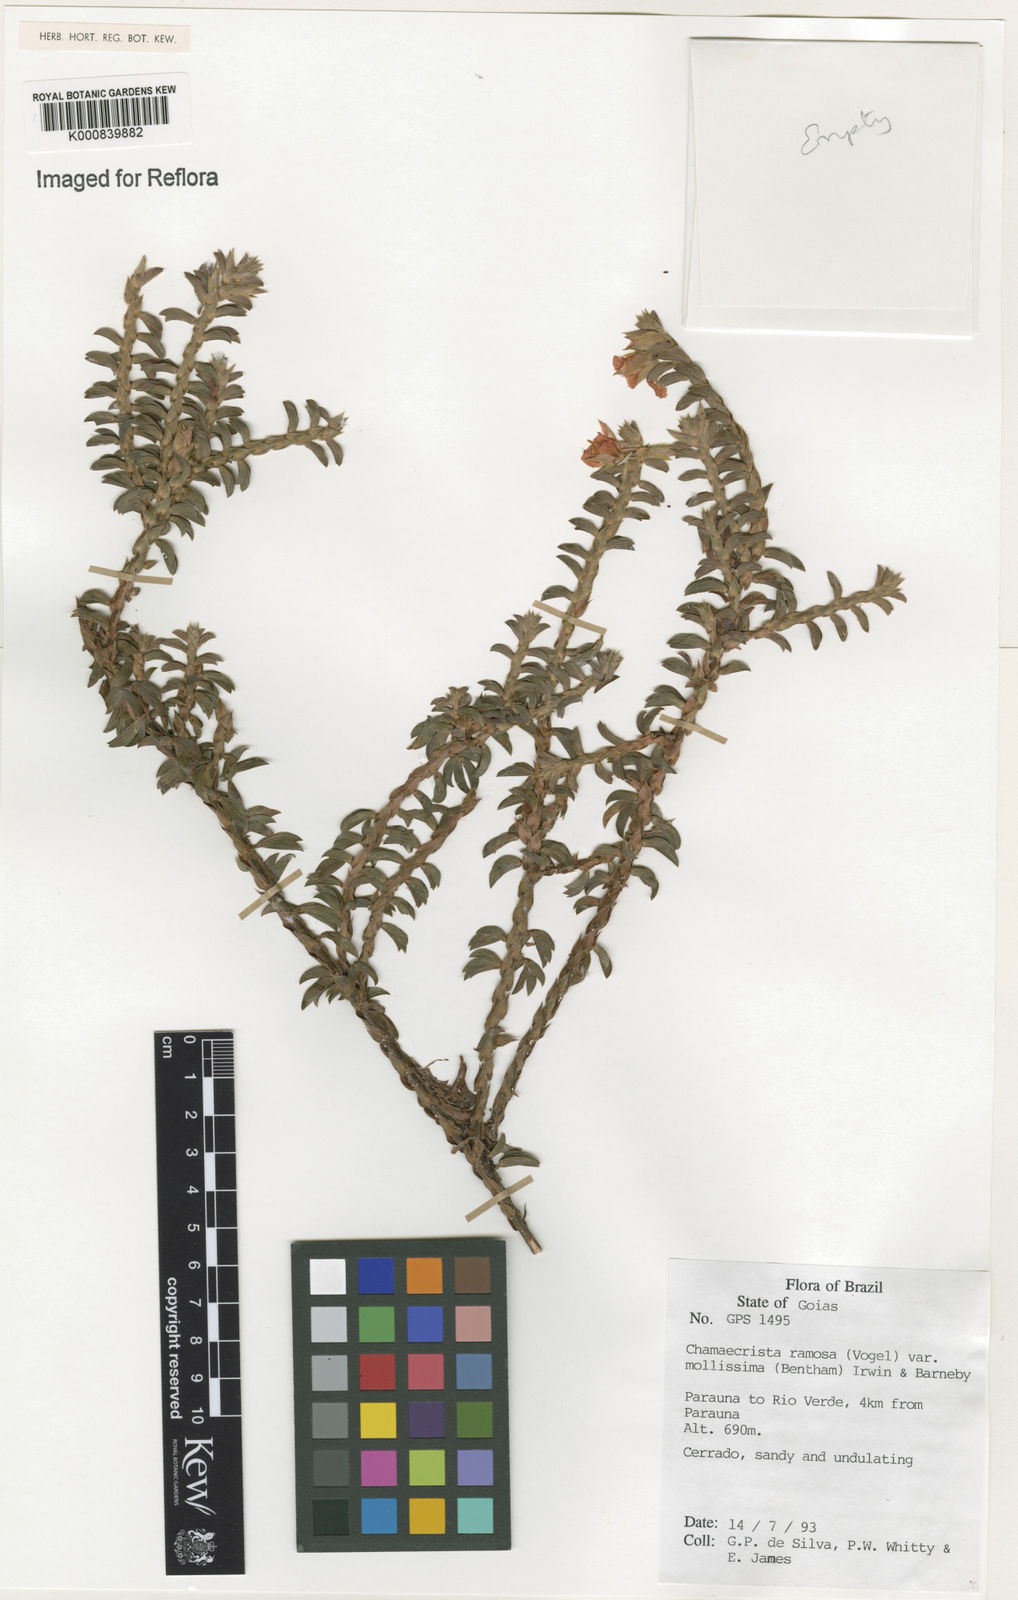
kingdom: Plantae
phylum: Tracheophyta
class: Magnoliopsida
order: Fabales
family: Fabaceae
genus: Chamaecrista
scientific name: Chamaecrista ramosa
